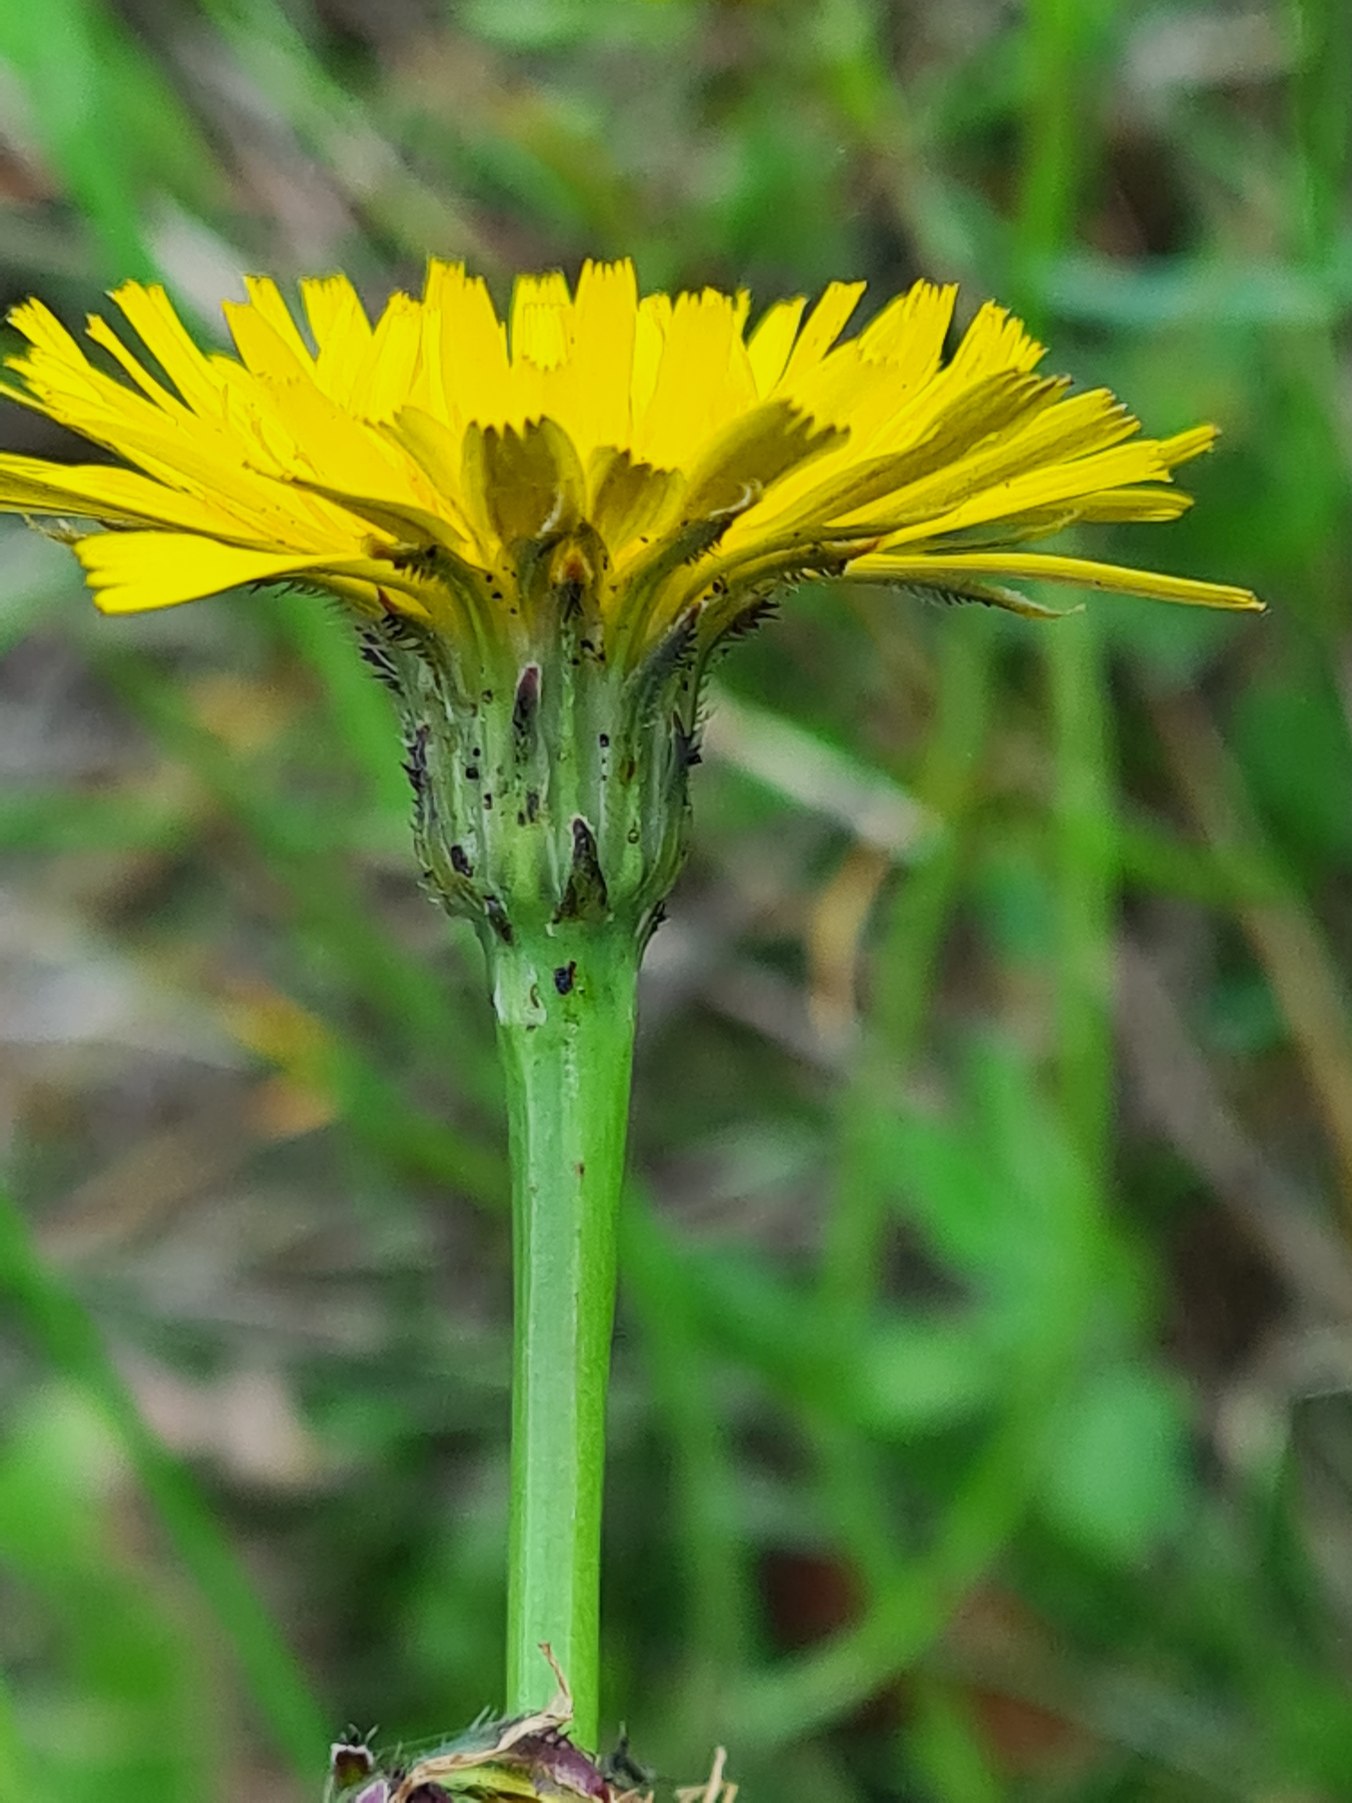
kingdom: Plantae
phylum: Tracheophyta
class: Magnoliopsida
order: Asterales
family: Asteraceae
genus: Hypochaeris
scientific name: Hypochaeris radicata
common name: Almindelig kongepen
